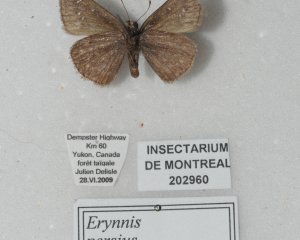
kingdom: Animalia
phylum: Arthropoda
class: Insecta
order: Lepidoptera
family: Hesperiidae
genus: Gesta
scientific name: Gesta
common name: Persius Duskywing
